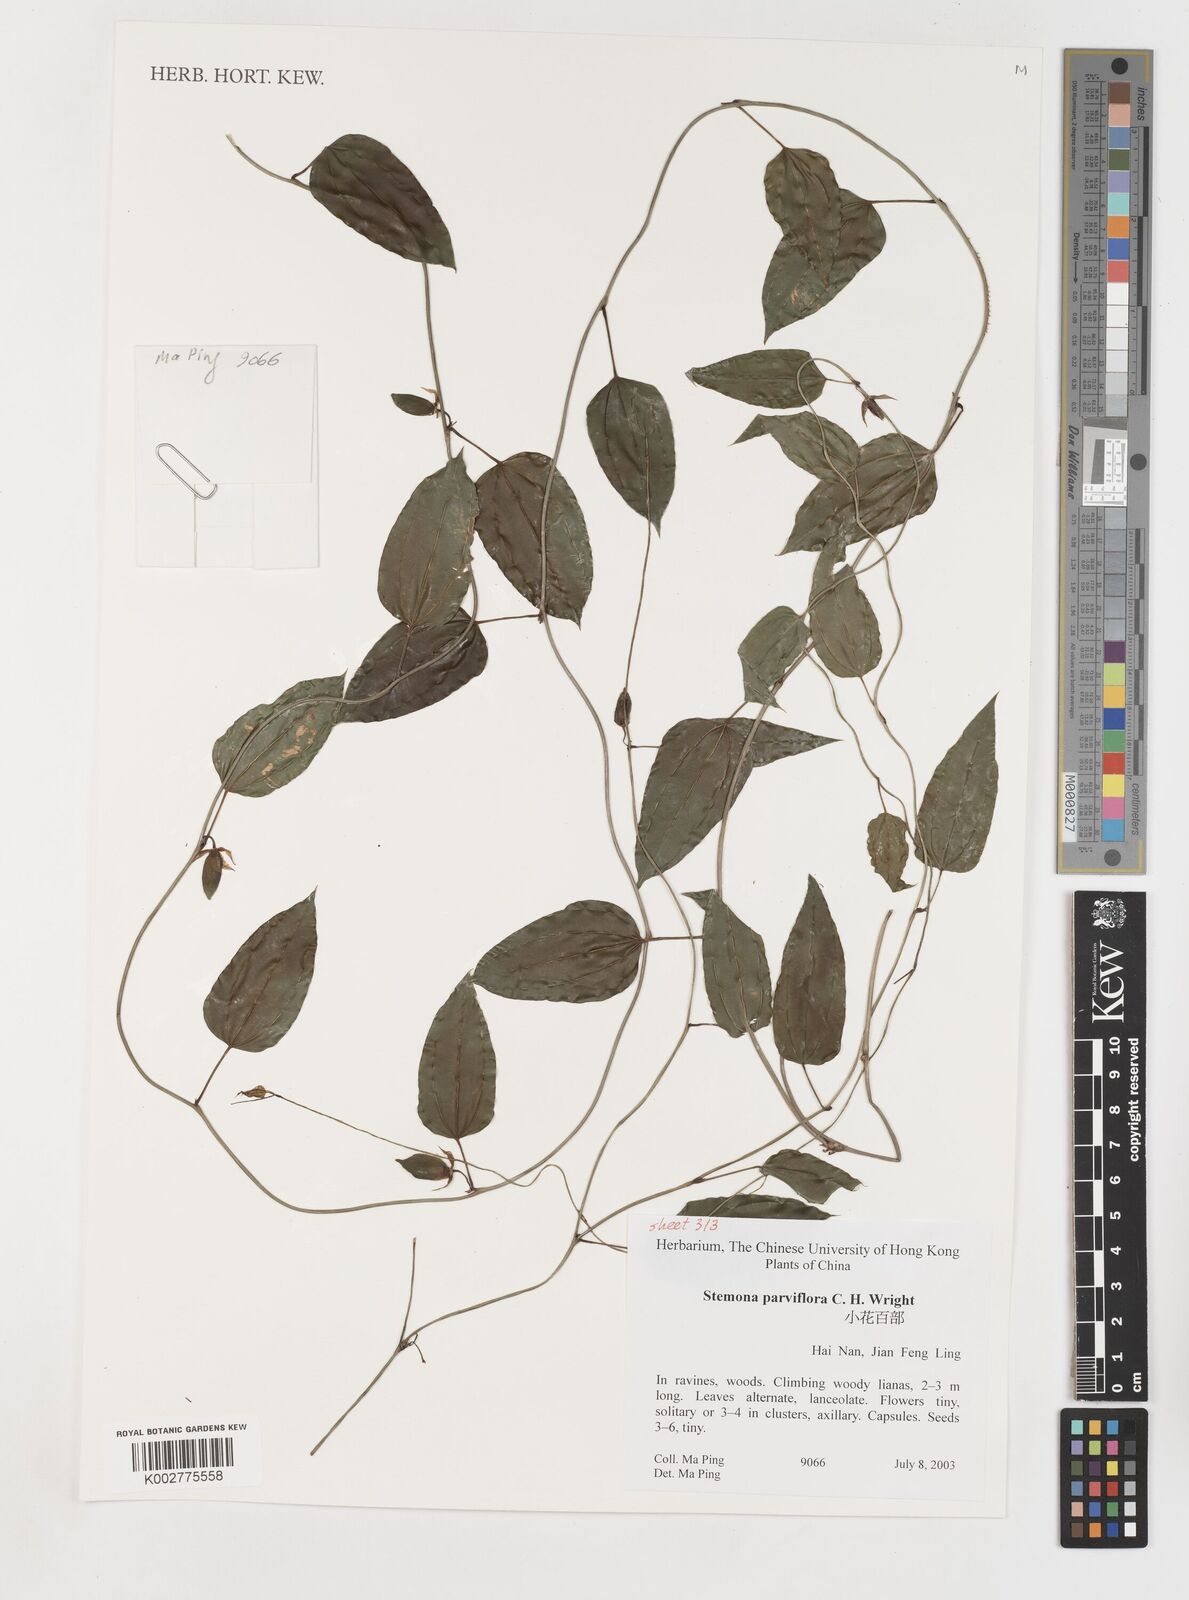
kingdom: Plantae
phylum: Tracheophyta
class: Liliopsida
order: Pandanales
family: Stemonaceae
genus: Stemona
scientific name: Stemona parviflora
